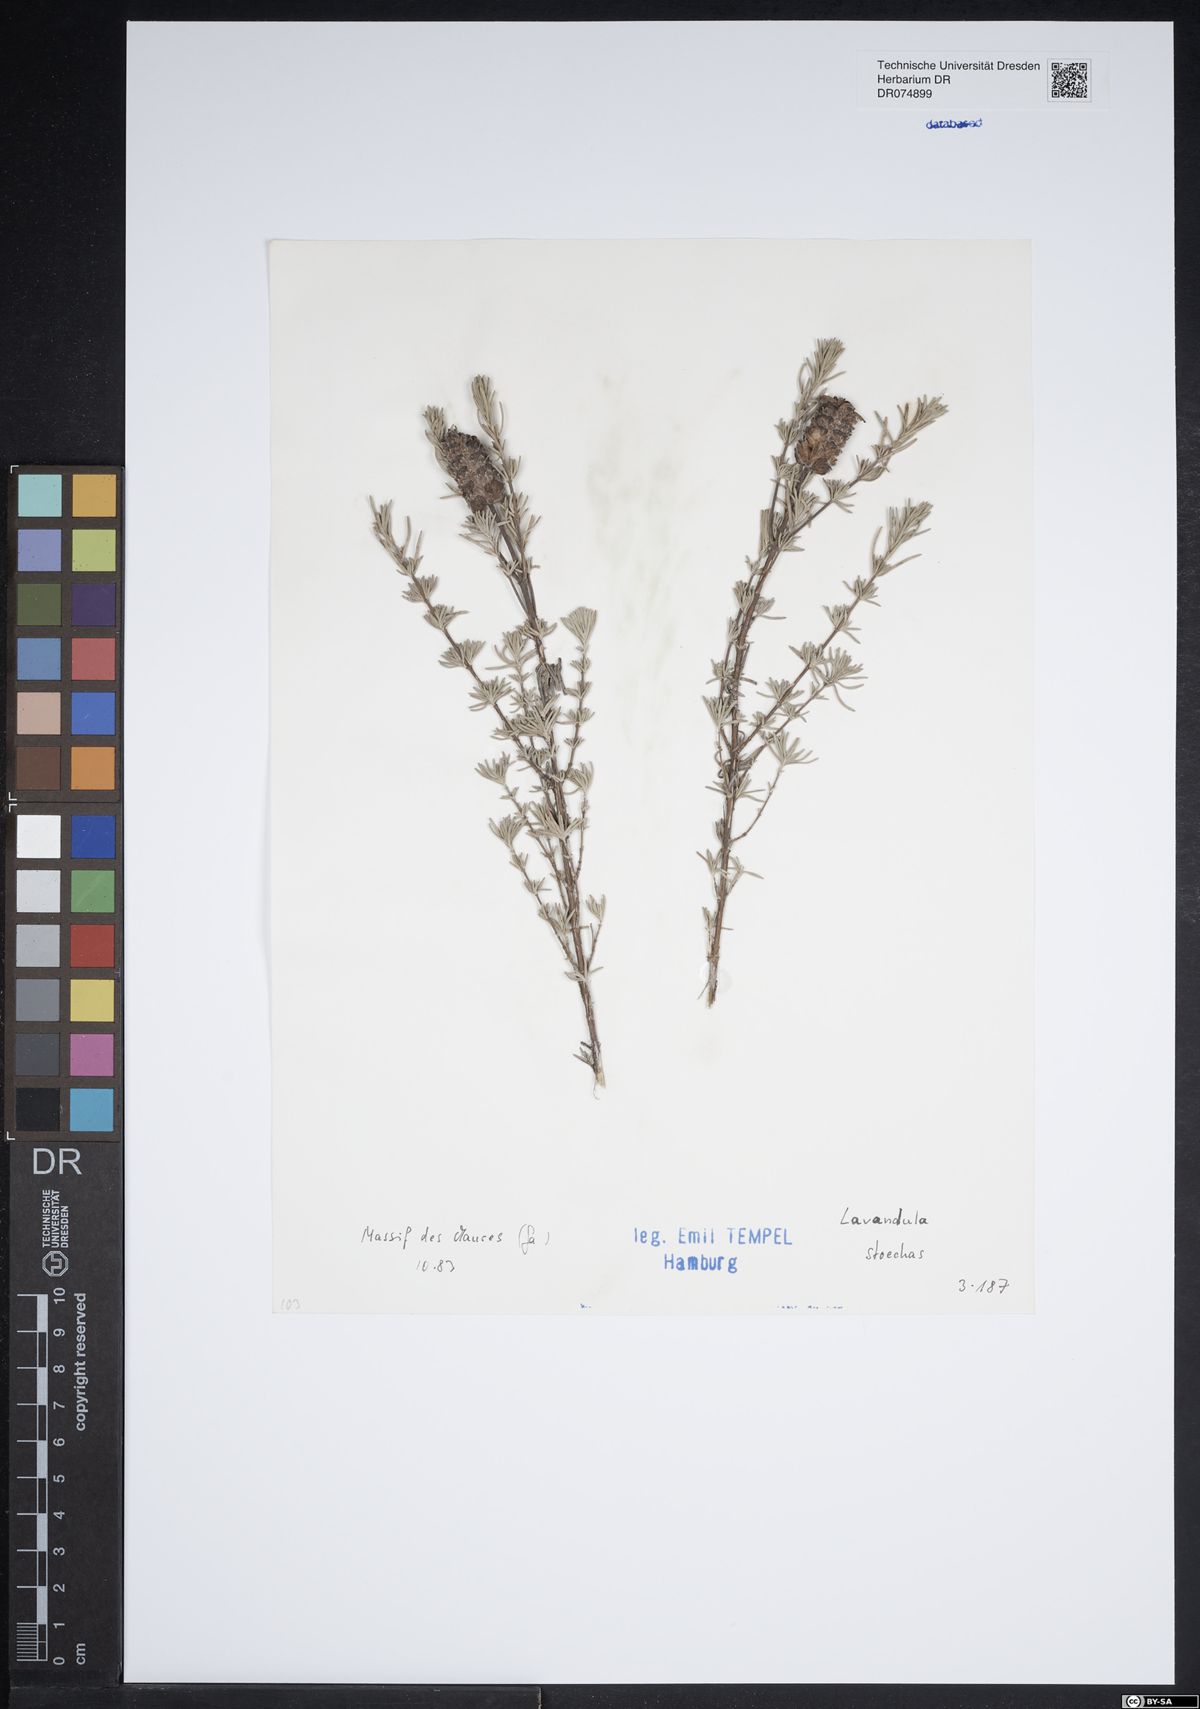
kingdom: Plantae
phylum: Tracheophyta
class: Magnoliopsida
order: Lamiales
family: Lamiaceae
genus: Lavandula
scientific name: Lavandula stoechas
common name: French lavender
